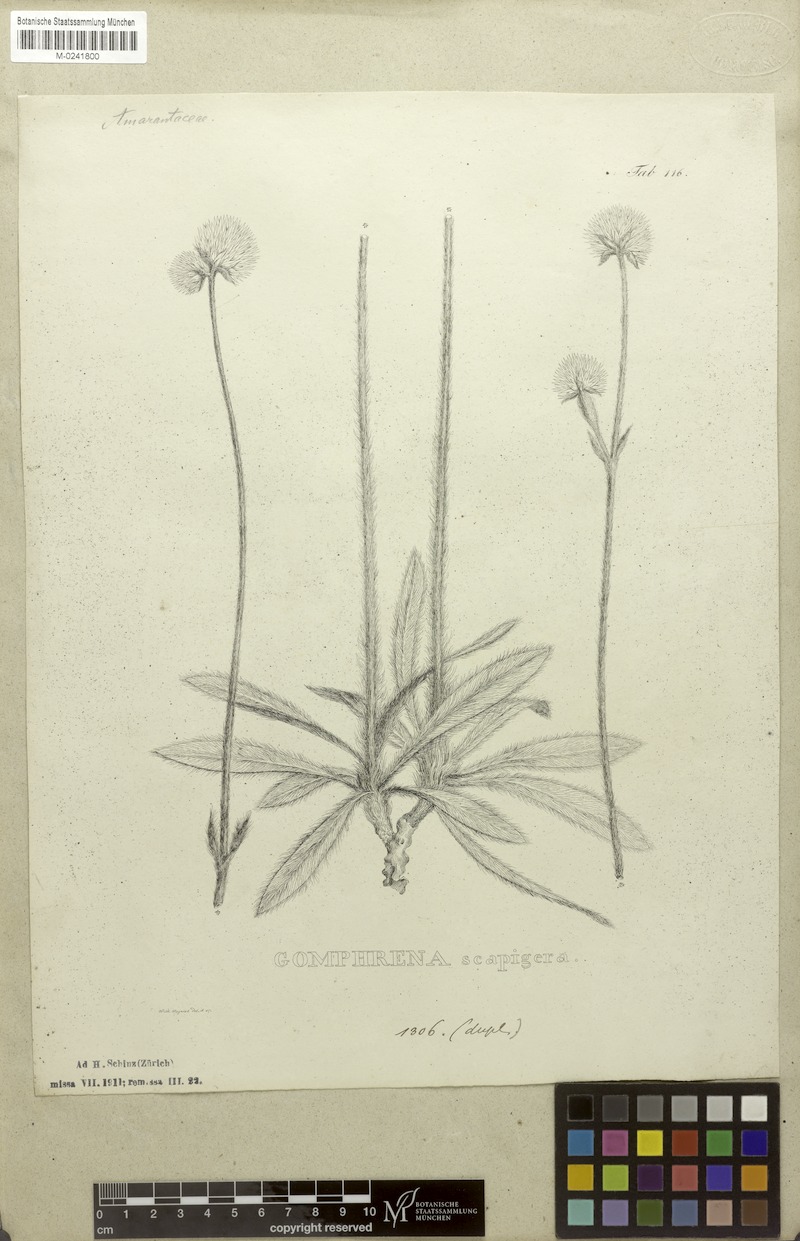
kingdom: Plantae
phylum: Tracheophyta
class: Magnoliopsida
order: Caryophyllales
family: Amaranthaceae
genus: Gomphrena
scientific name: Gomphrena scapigera
